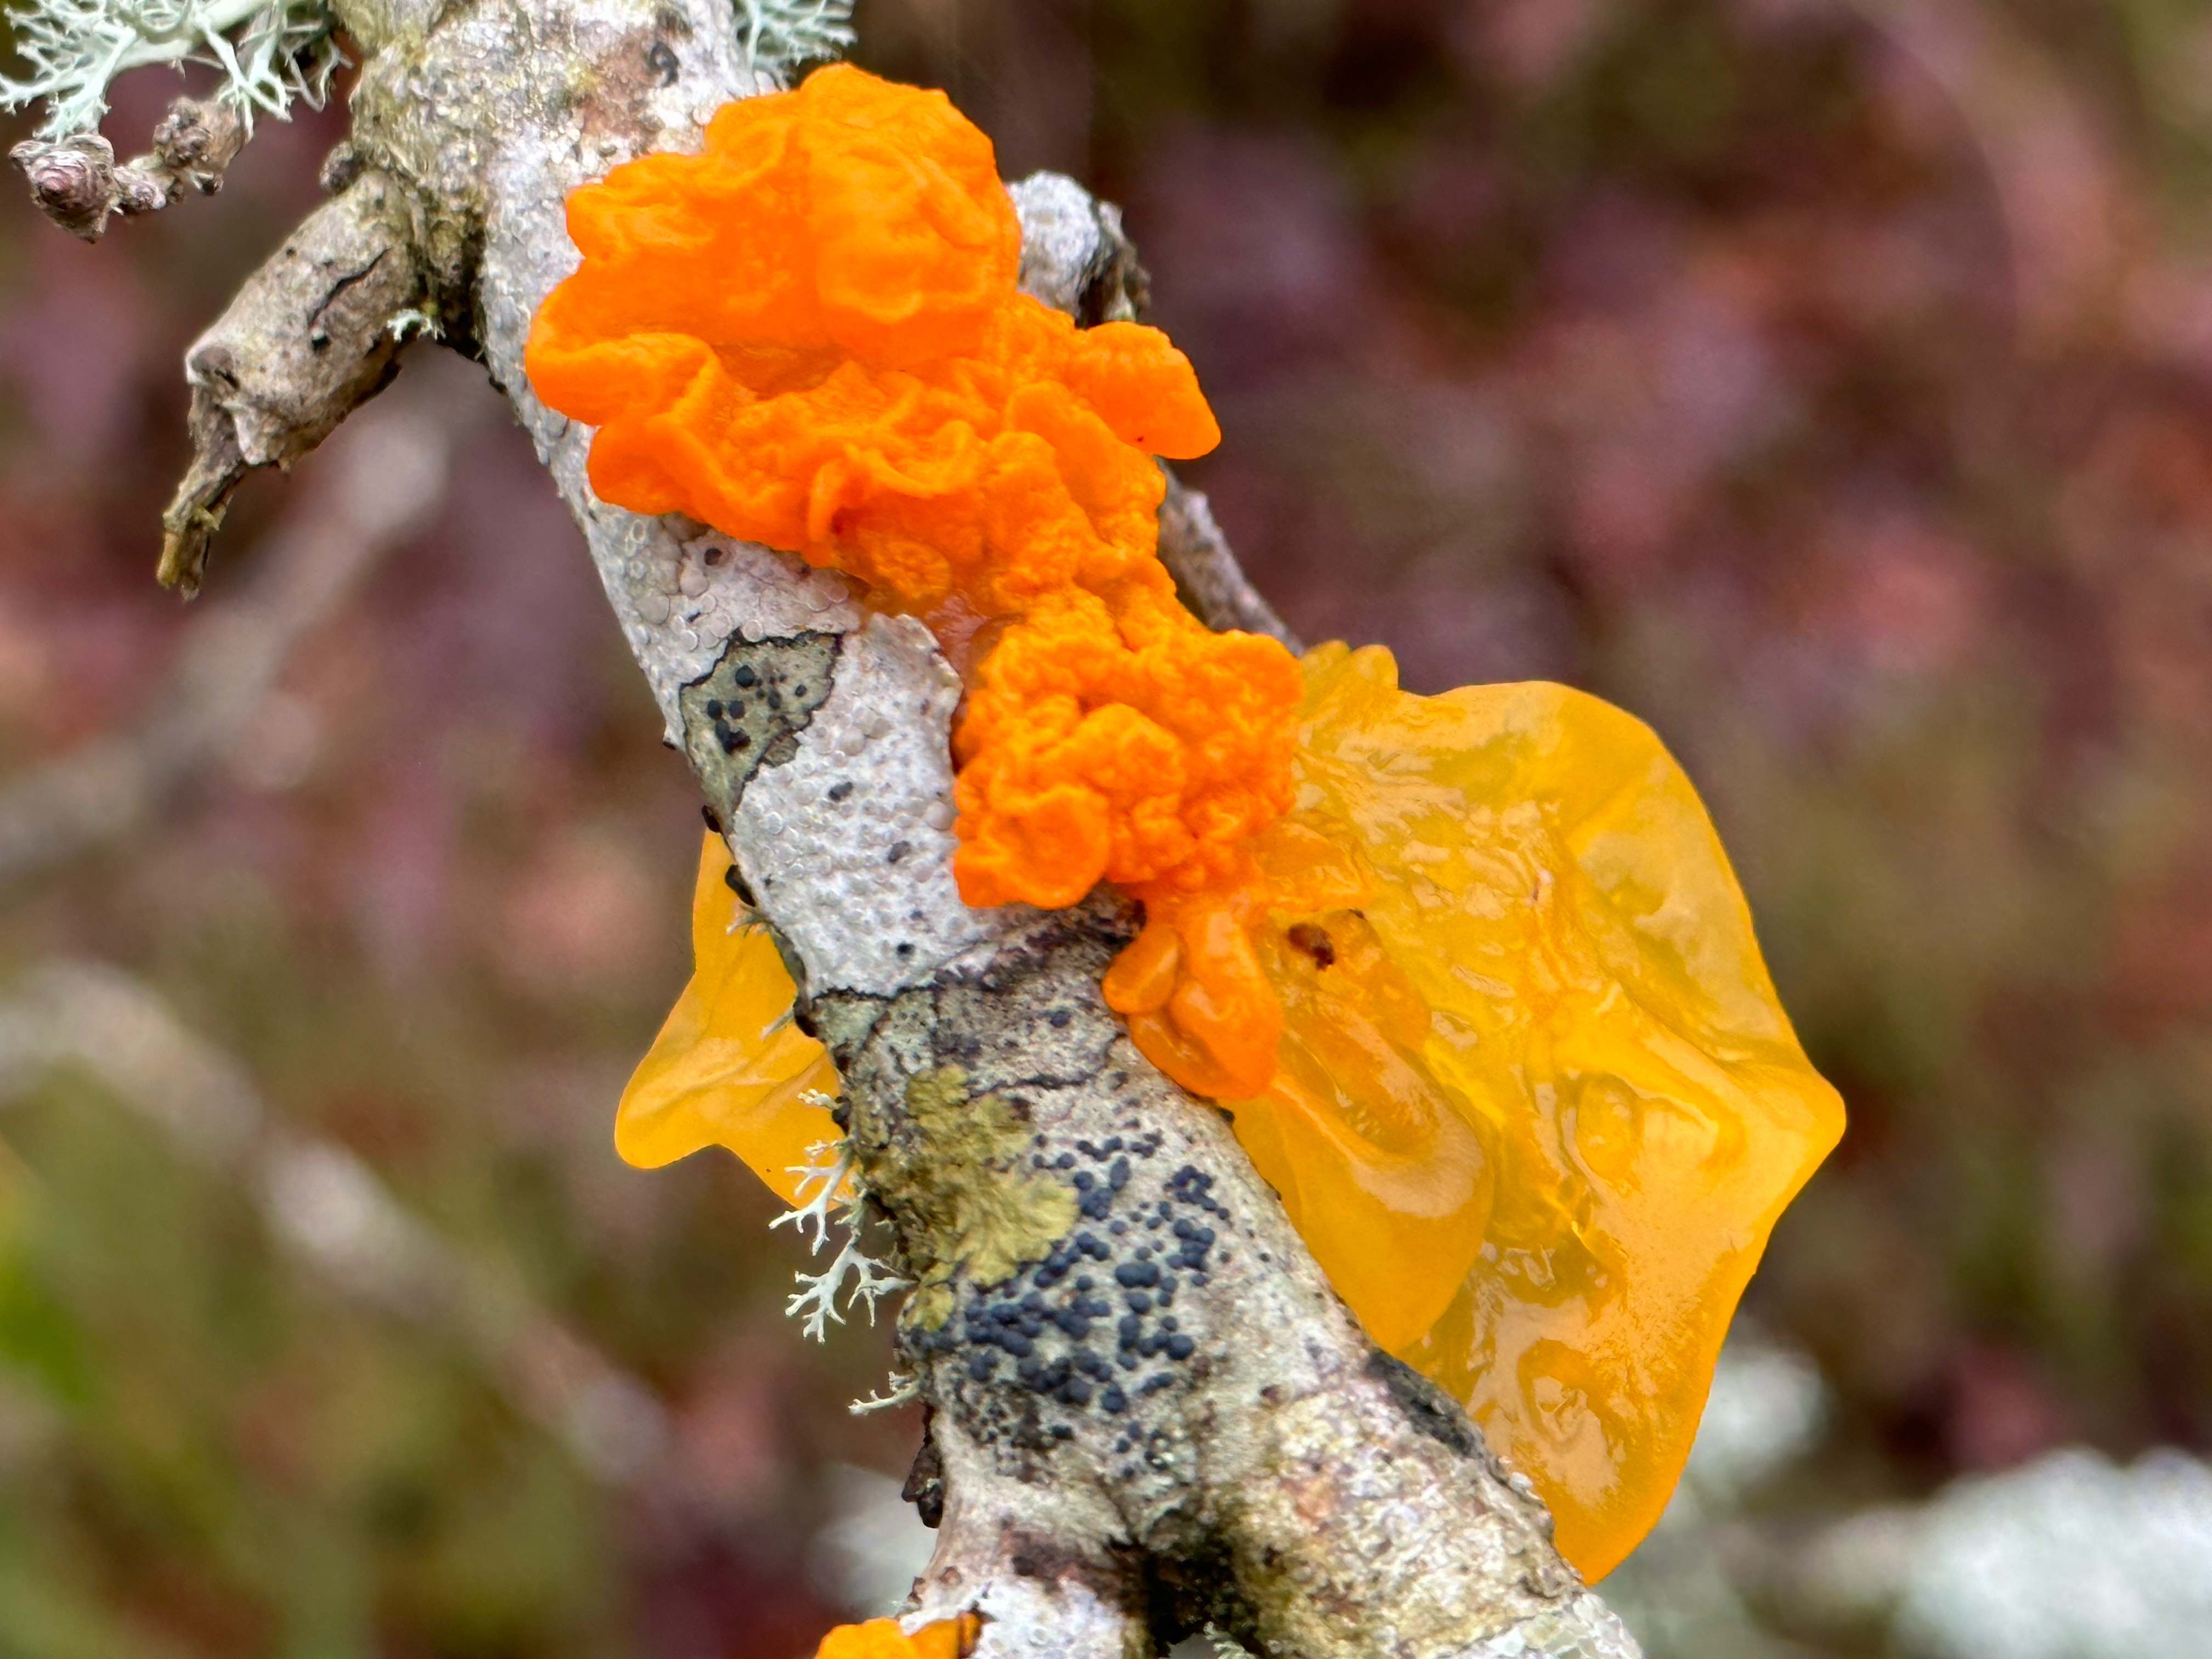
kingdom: Fungi
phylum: Basidiomycota
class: Tremellomycetes
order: Tremellales
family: Tremellaceae
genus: Tremella
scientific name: Tremella mesenterica
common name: gul bævresvamp
